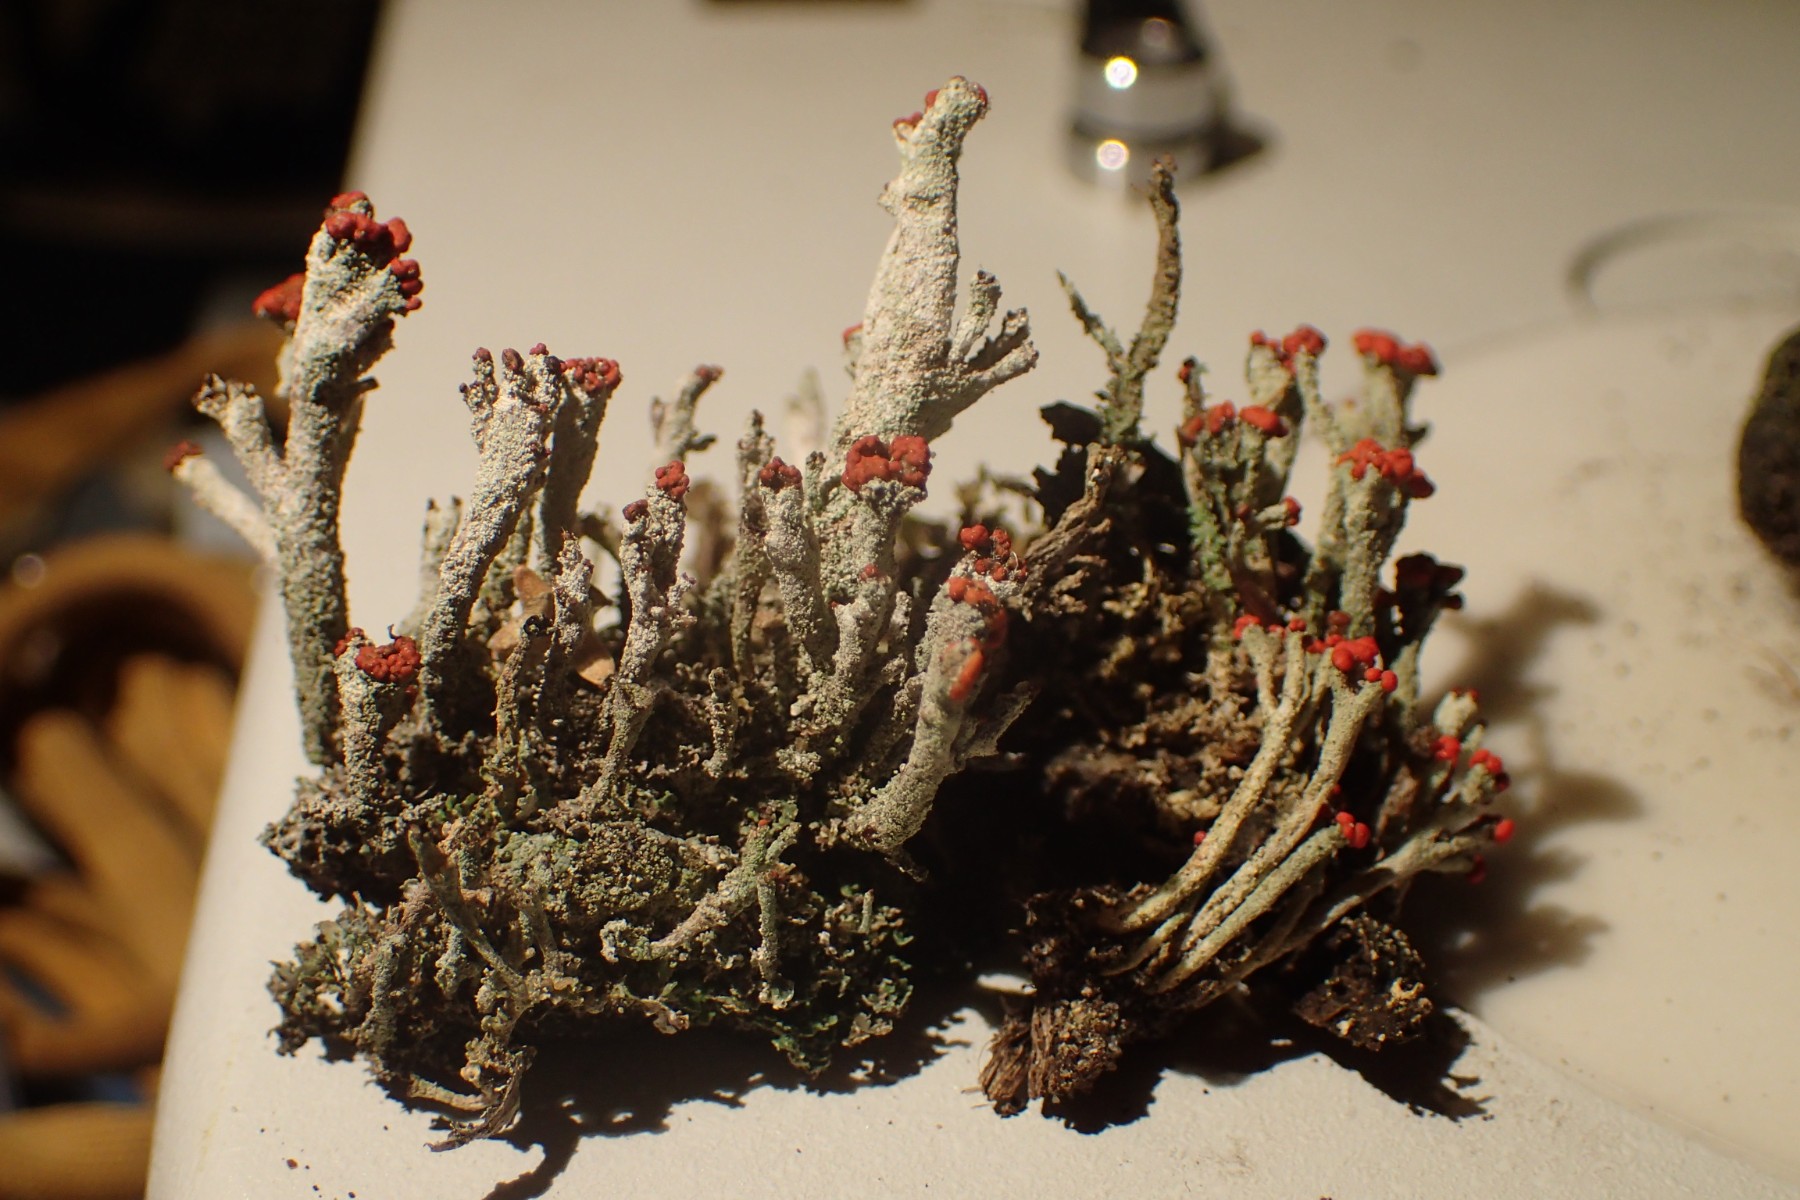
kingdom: Fungi
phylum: Ascomycota
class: Lecanoromycetes
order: Lecanorales
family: Cladoniaceae
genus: Cladonia
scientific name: Cladonia floerkeana
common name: lakrød bægerlav
